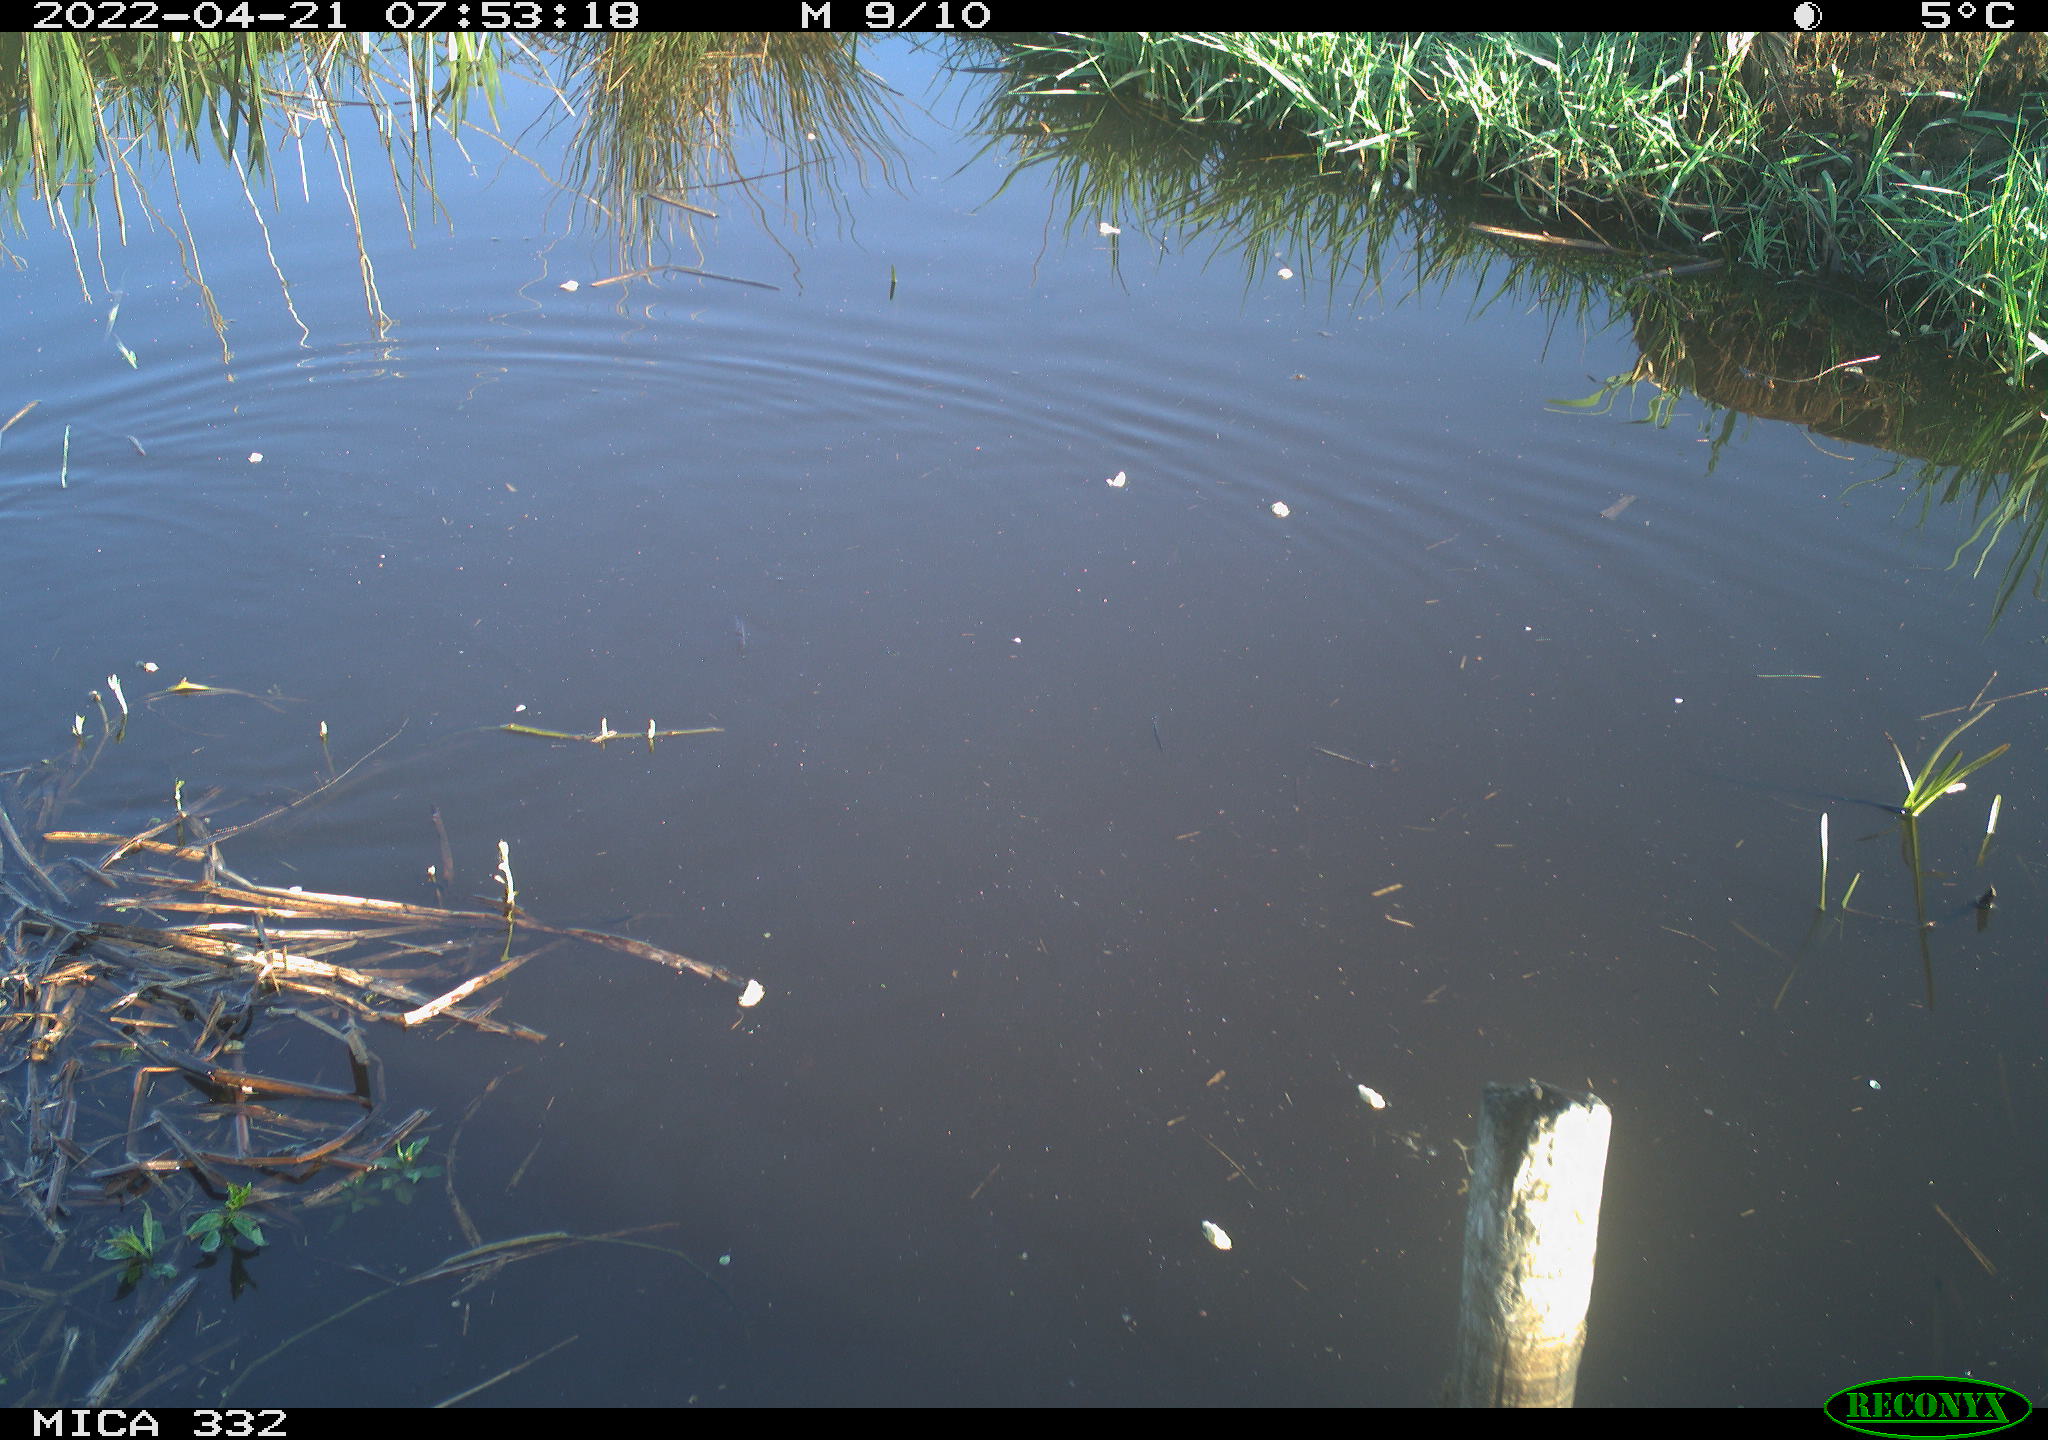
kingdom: Animalia
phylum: Chordata
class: Aves
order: Gruiformes
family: Rallidae
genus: Gallinula
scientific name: Gallinula chloropus
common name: Common moorhen
